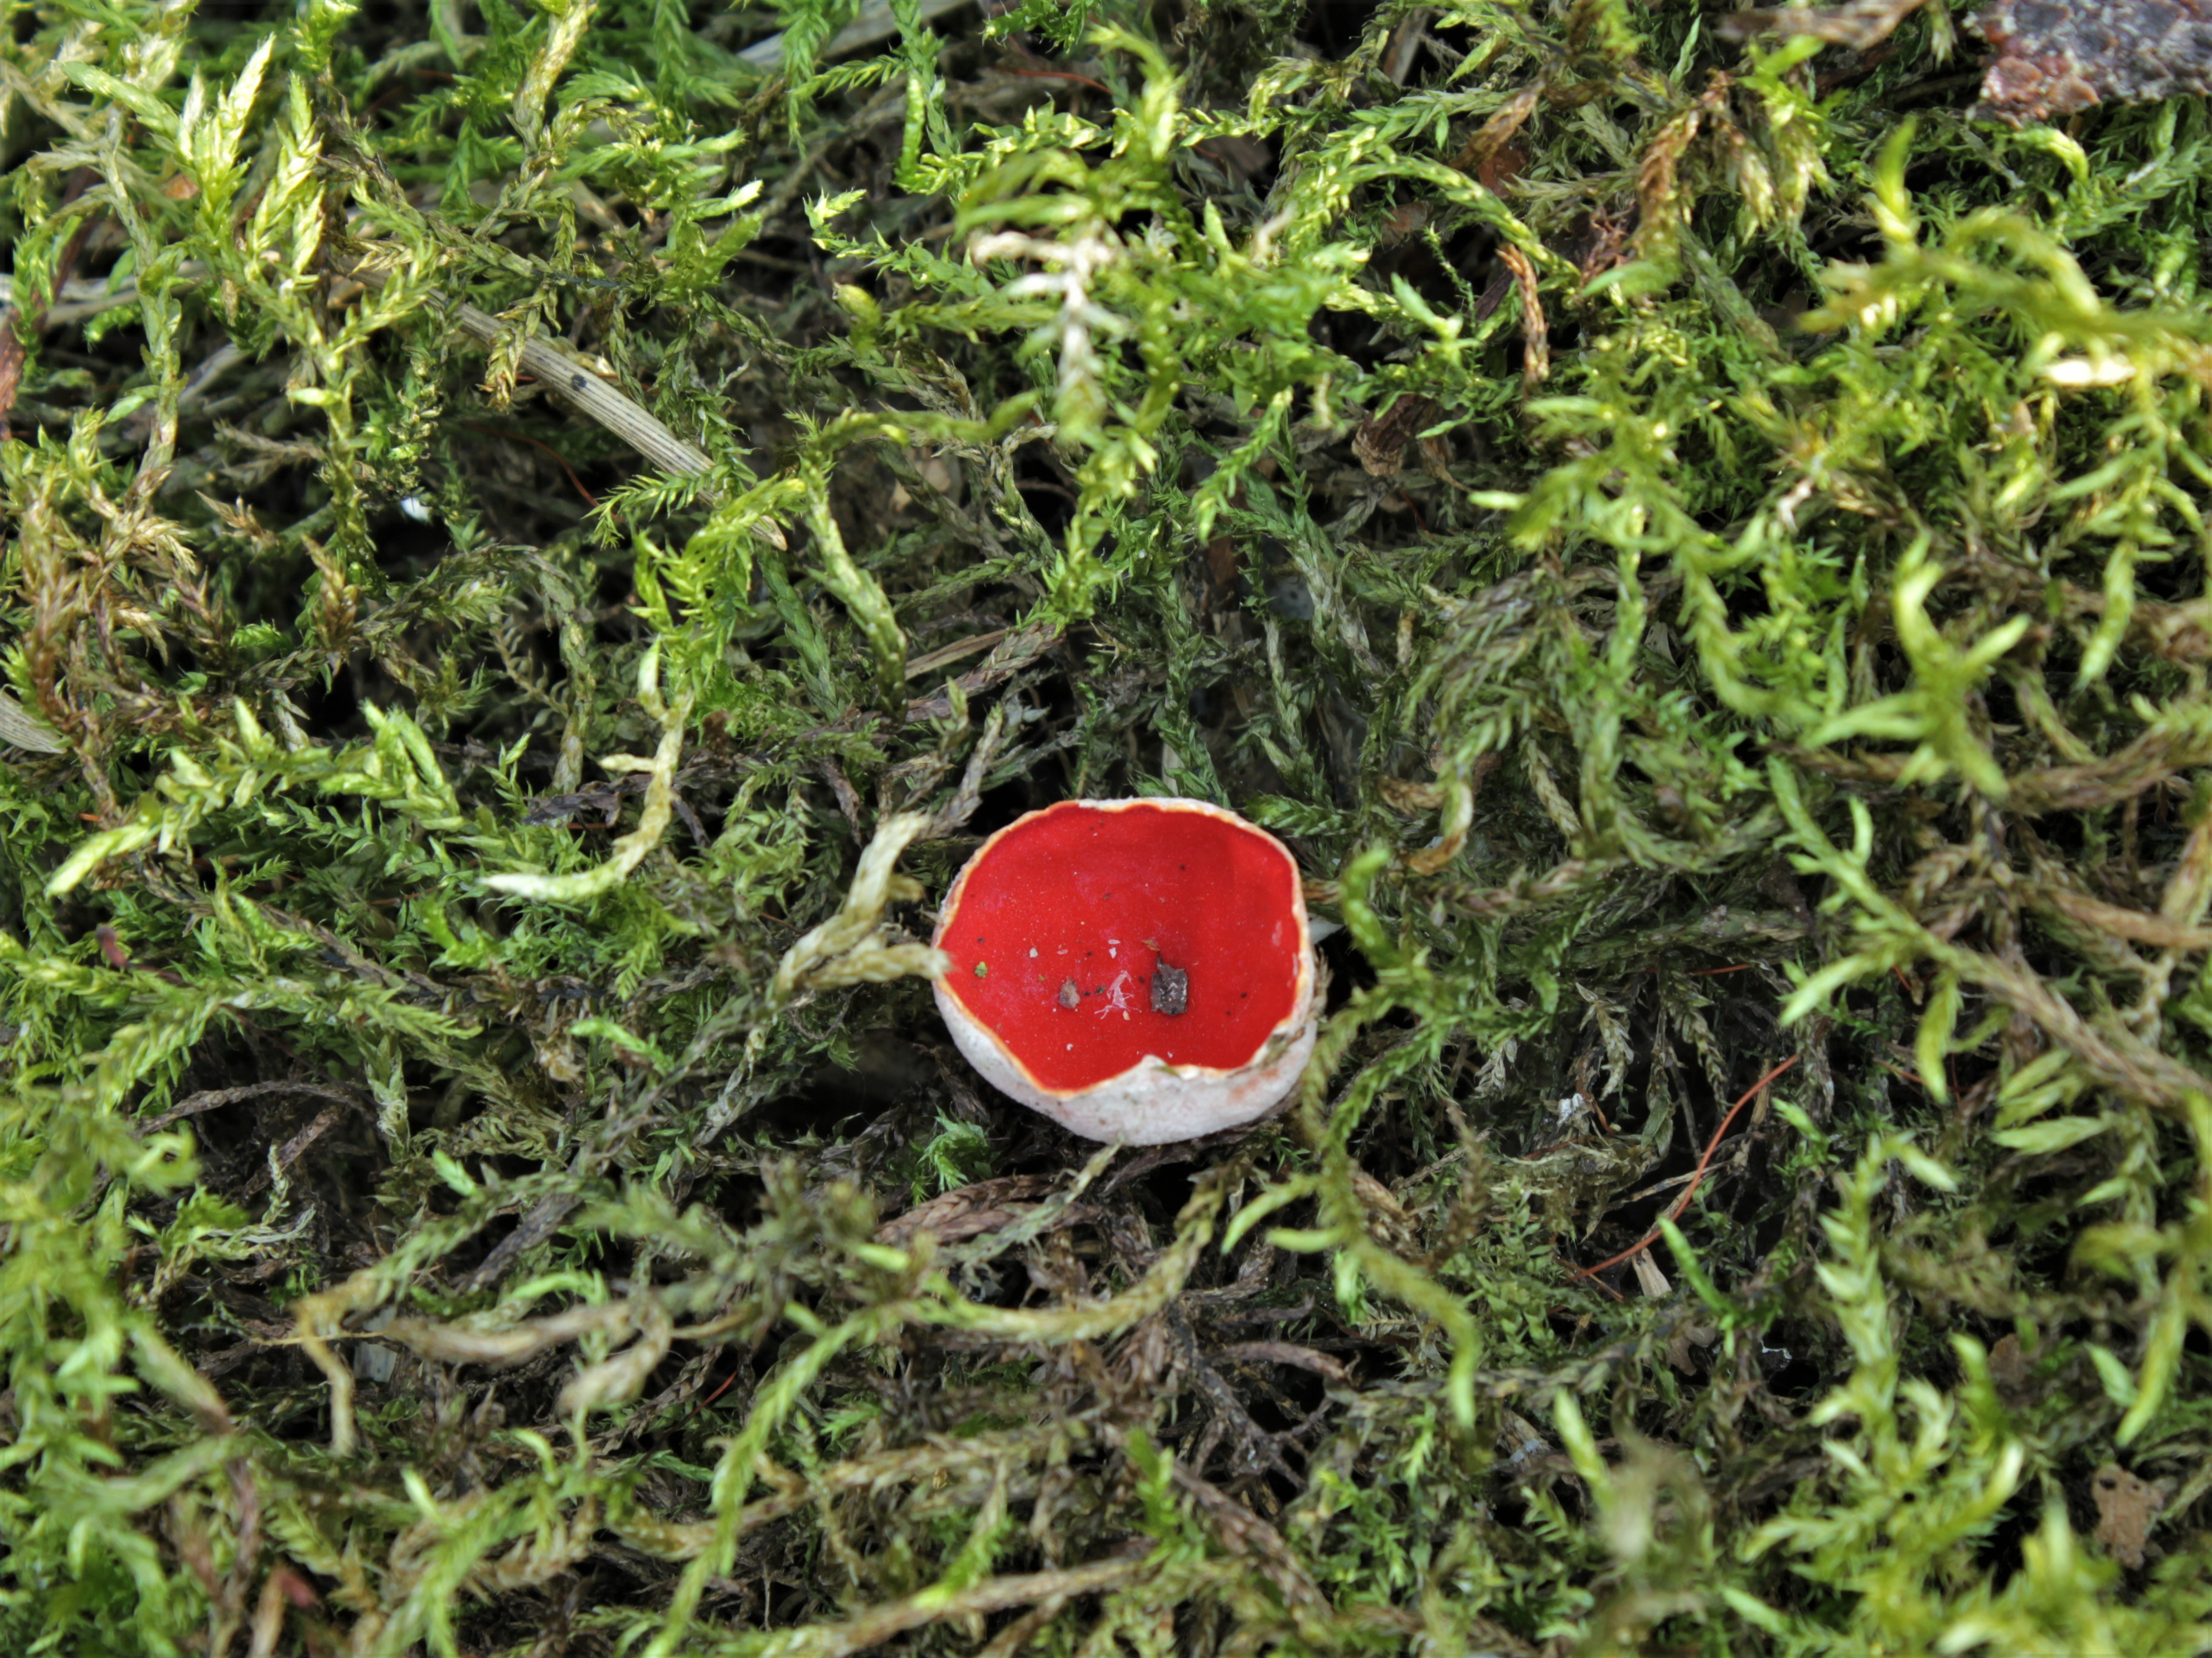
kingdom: Fungi
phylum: Ascomycota
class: Pezizomycetes
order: Pezizales
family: Sarcoscyphaceae
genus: Sarcoscypha
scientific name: Sarcoscypha austriaca
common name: Scarlet elfcup
